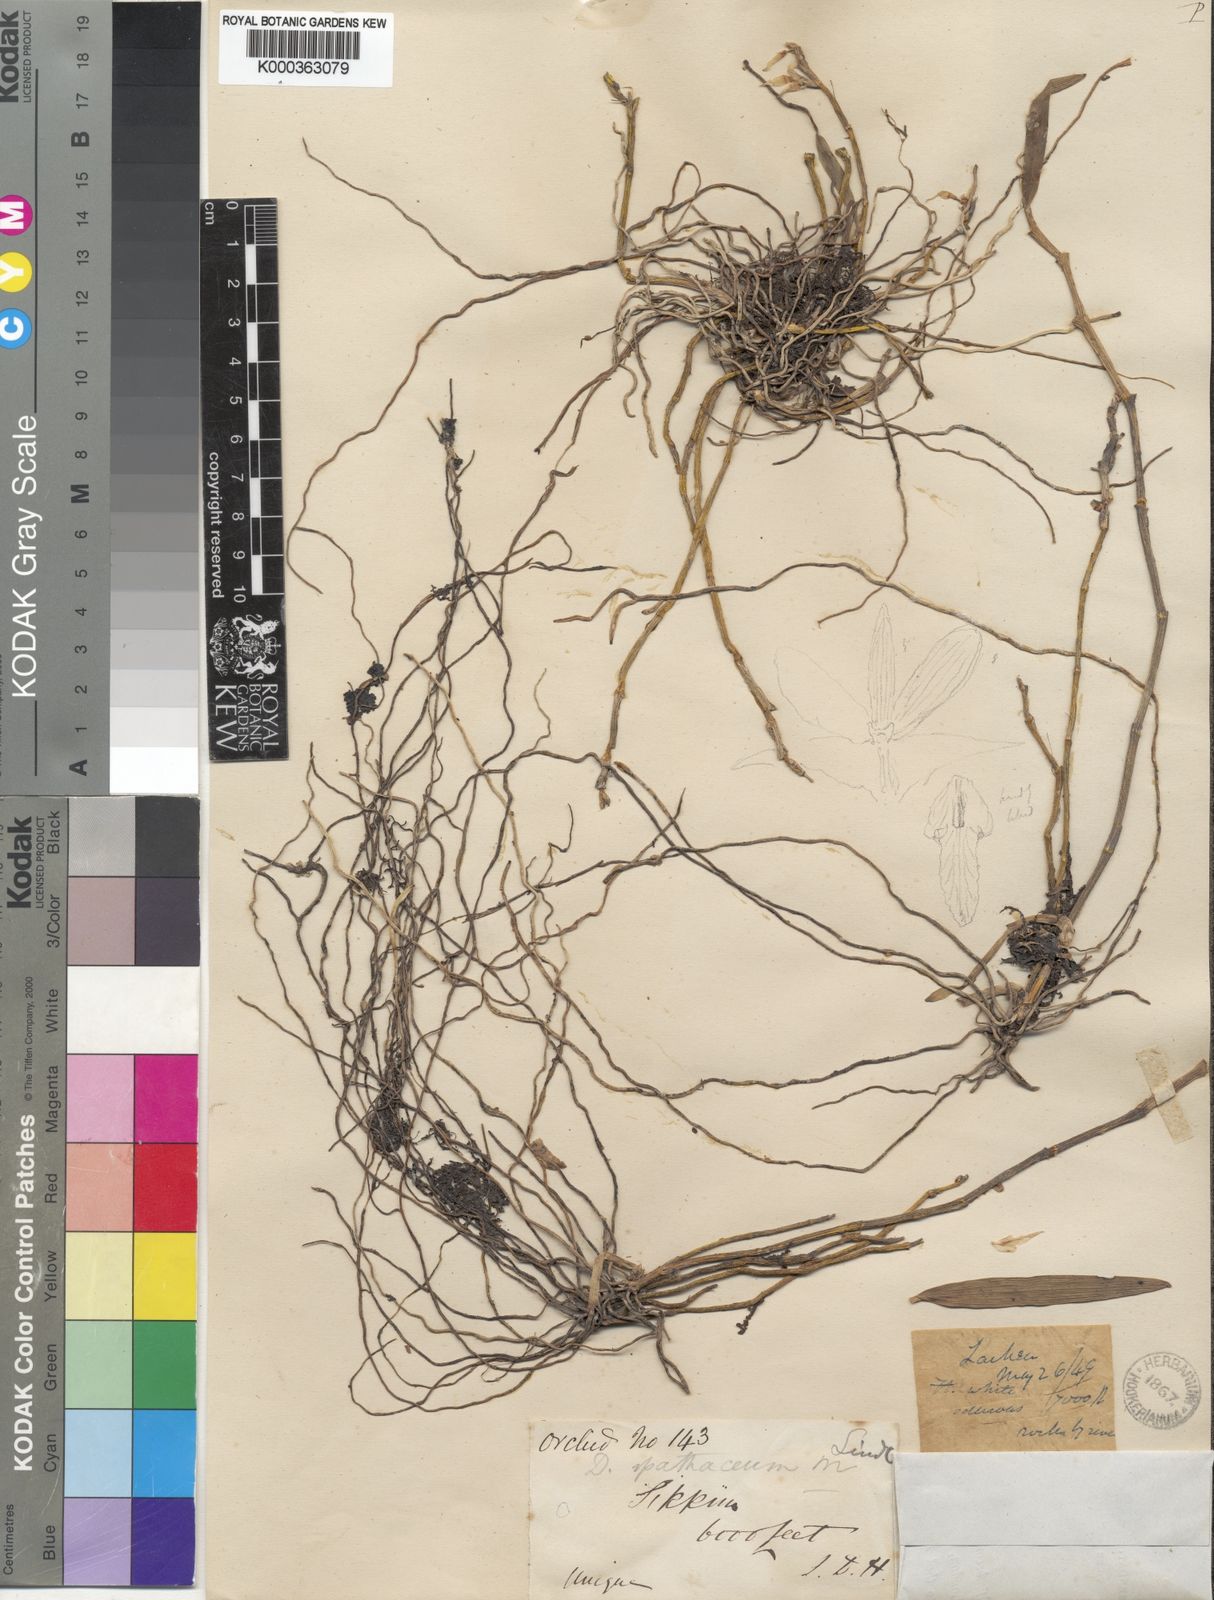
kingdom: Plantae
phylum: Tracheophyta
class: Liliopsida
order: Asparagales
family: Orchidaceae
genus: Dendrobium
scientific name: Dendrobium moniliforme
